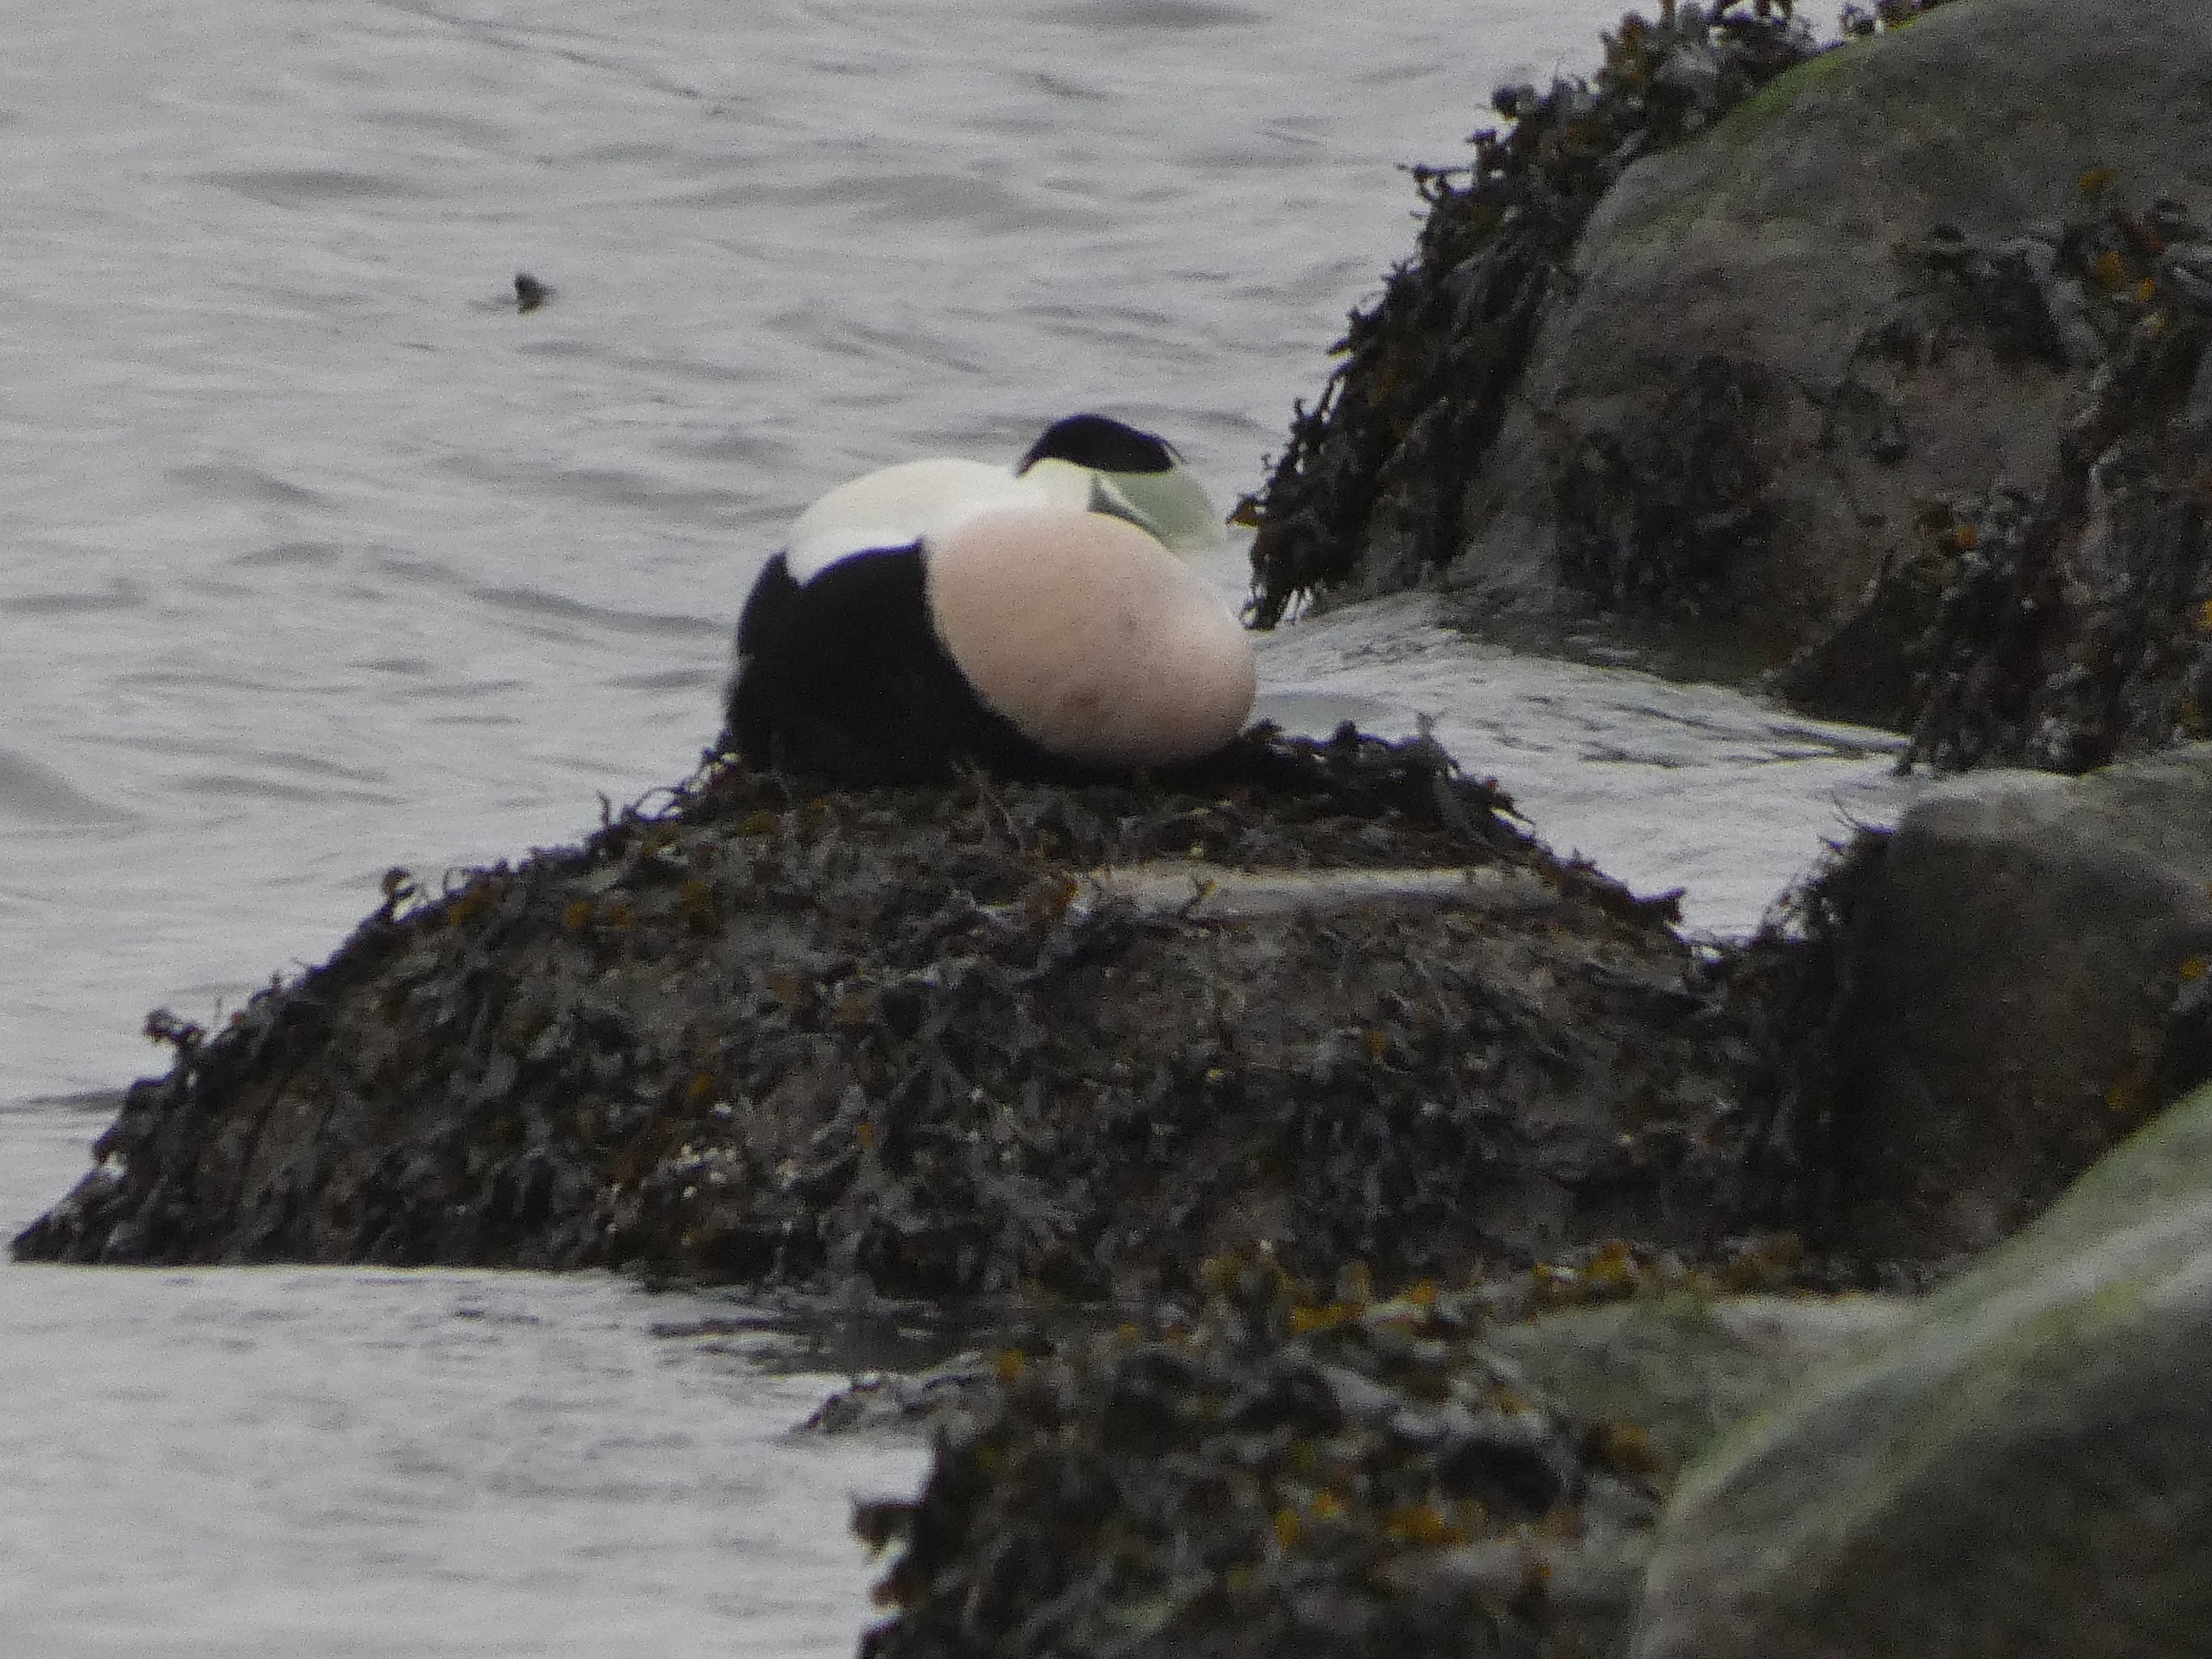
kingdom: Animalia
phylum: Chordata
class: Aves
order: Anseriformes
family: Anatidae
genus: Somateria
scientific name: Somateria mollissima
